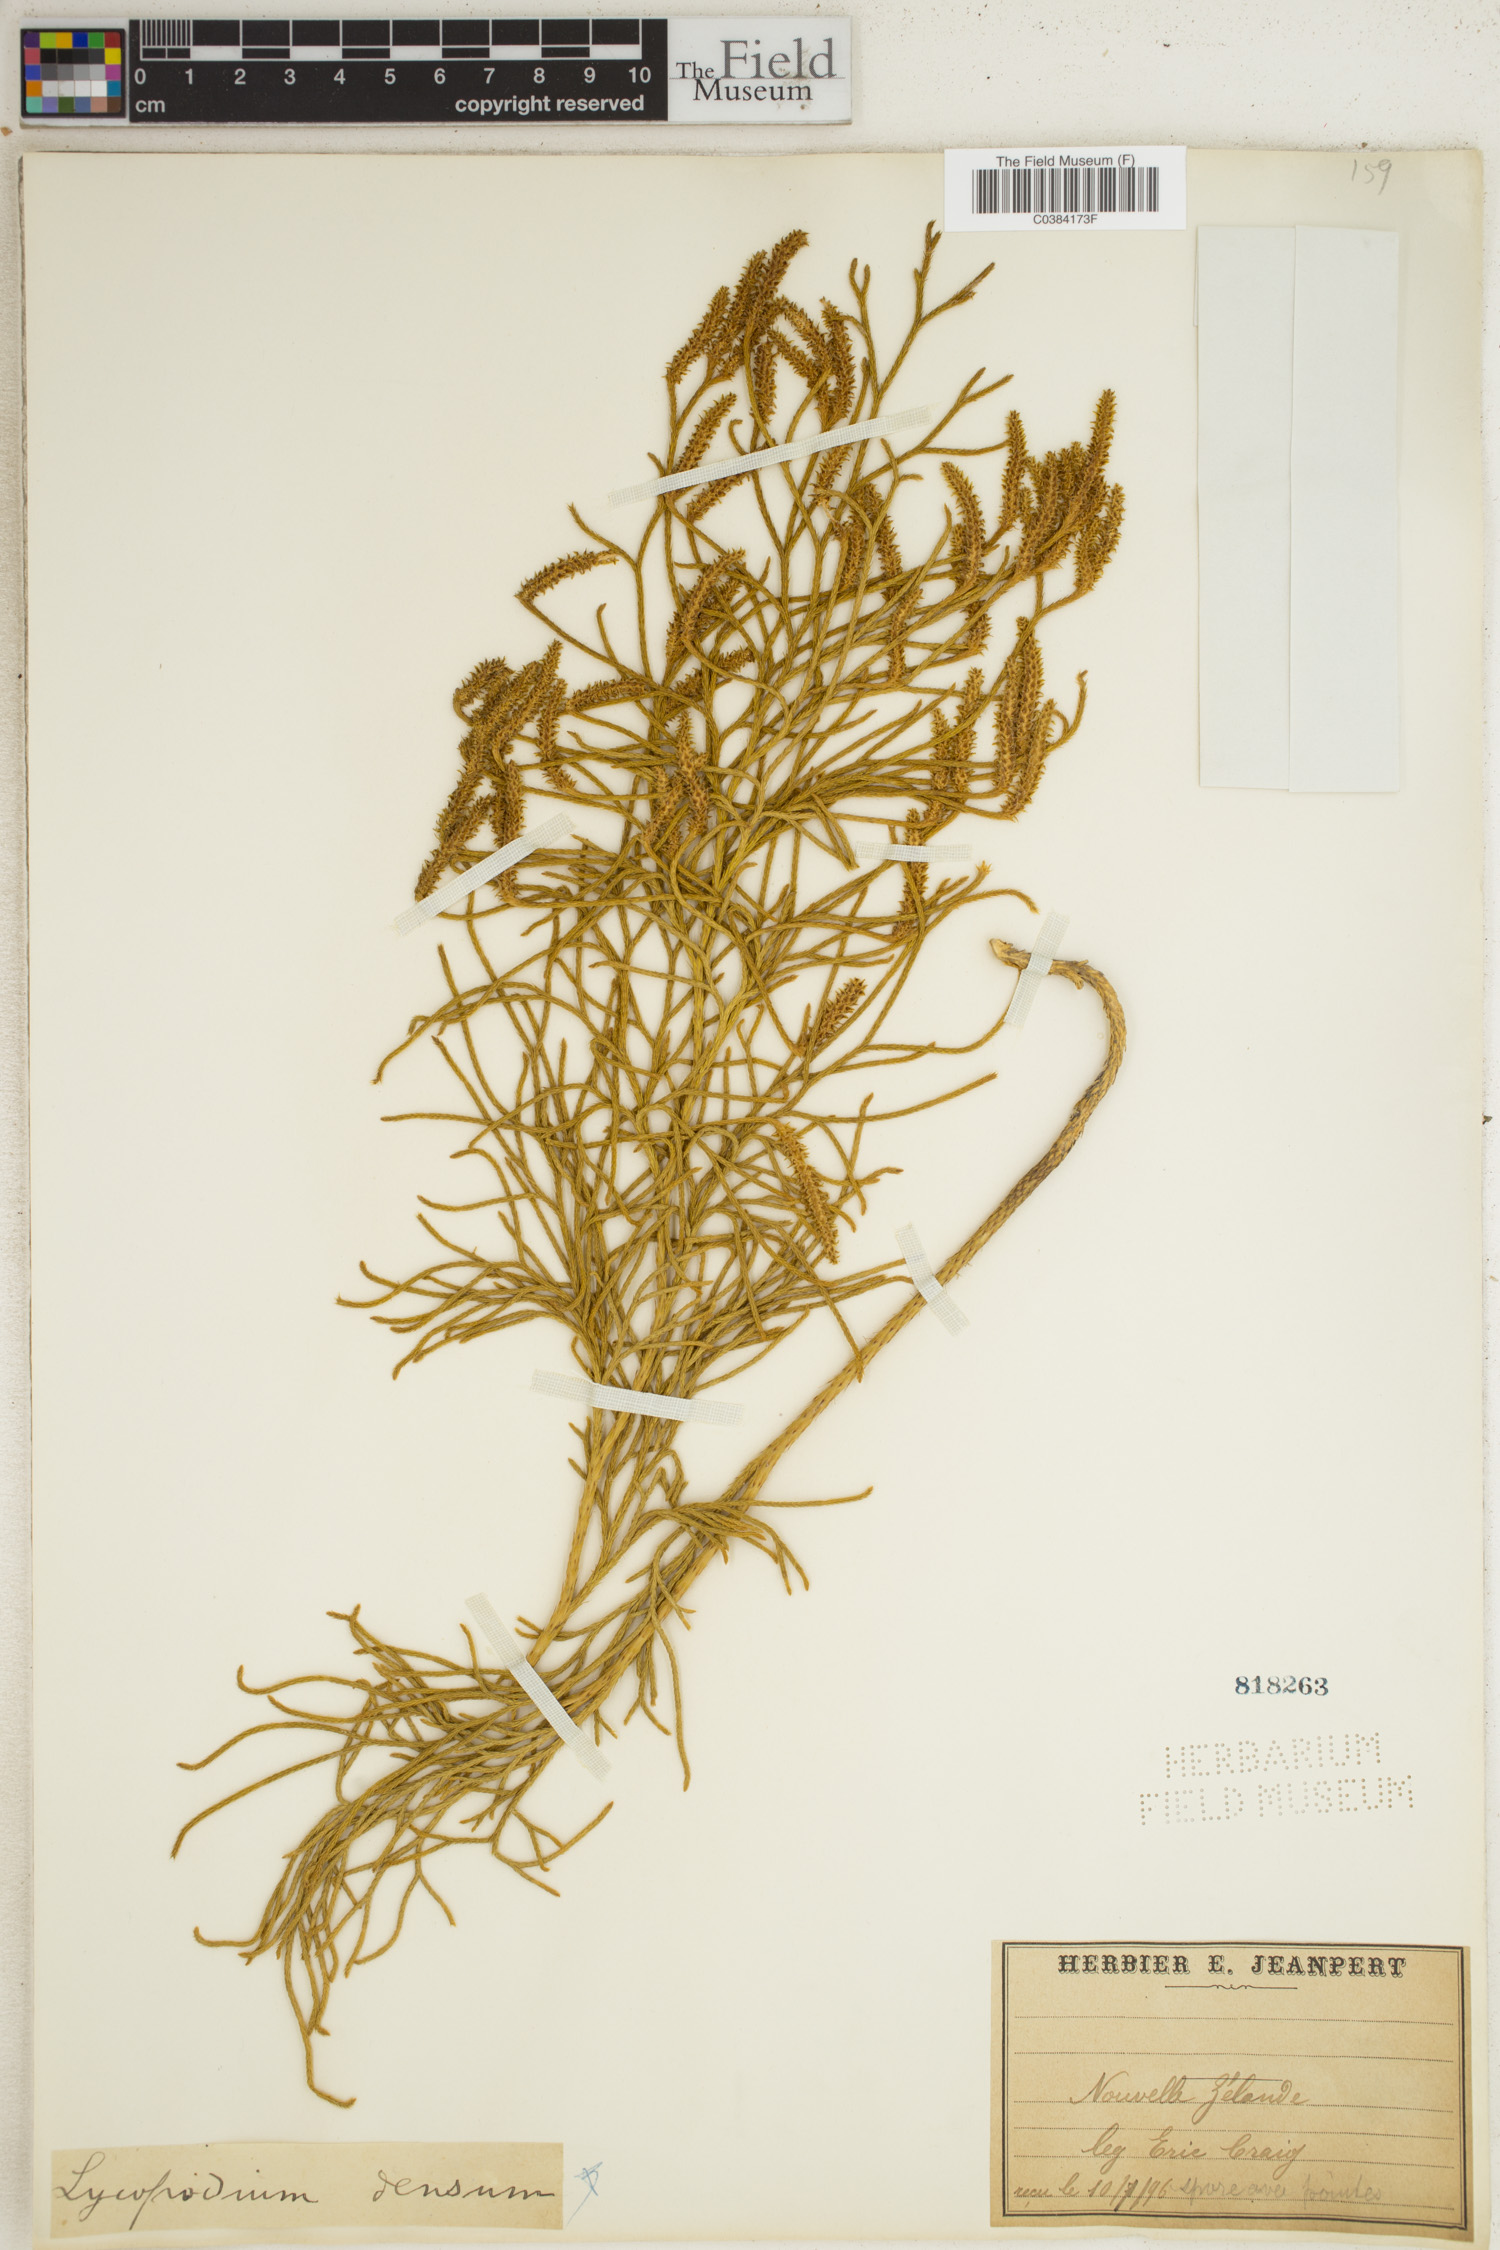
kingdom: Plantae
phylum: Tracheophyta
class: Lycopodiopsida
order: Lycopodiales
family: Lycopodiaceae
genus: Huperzia
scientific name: Huperzia selago
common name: Northern firmoss
